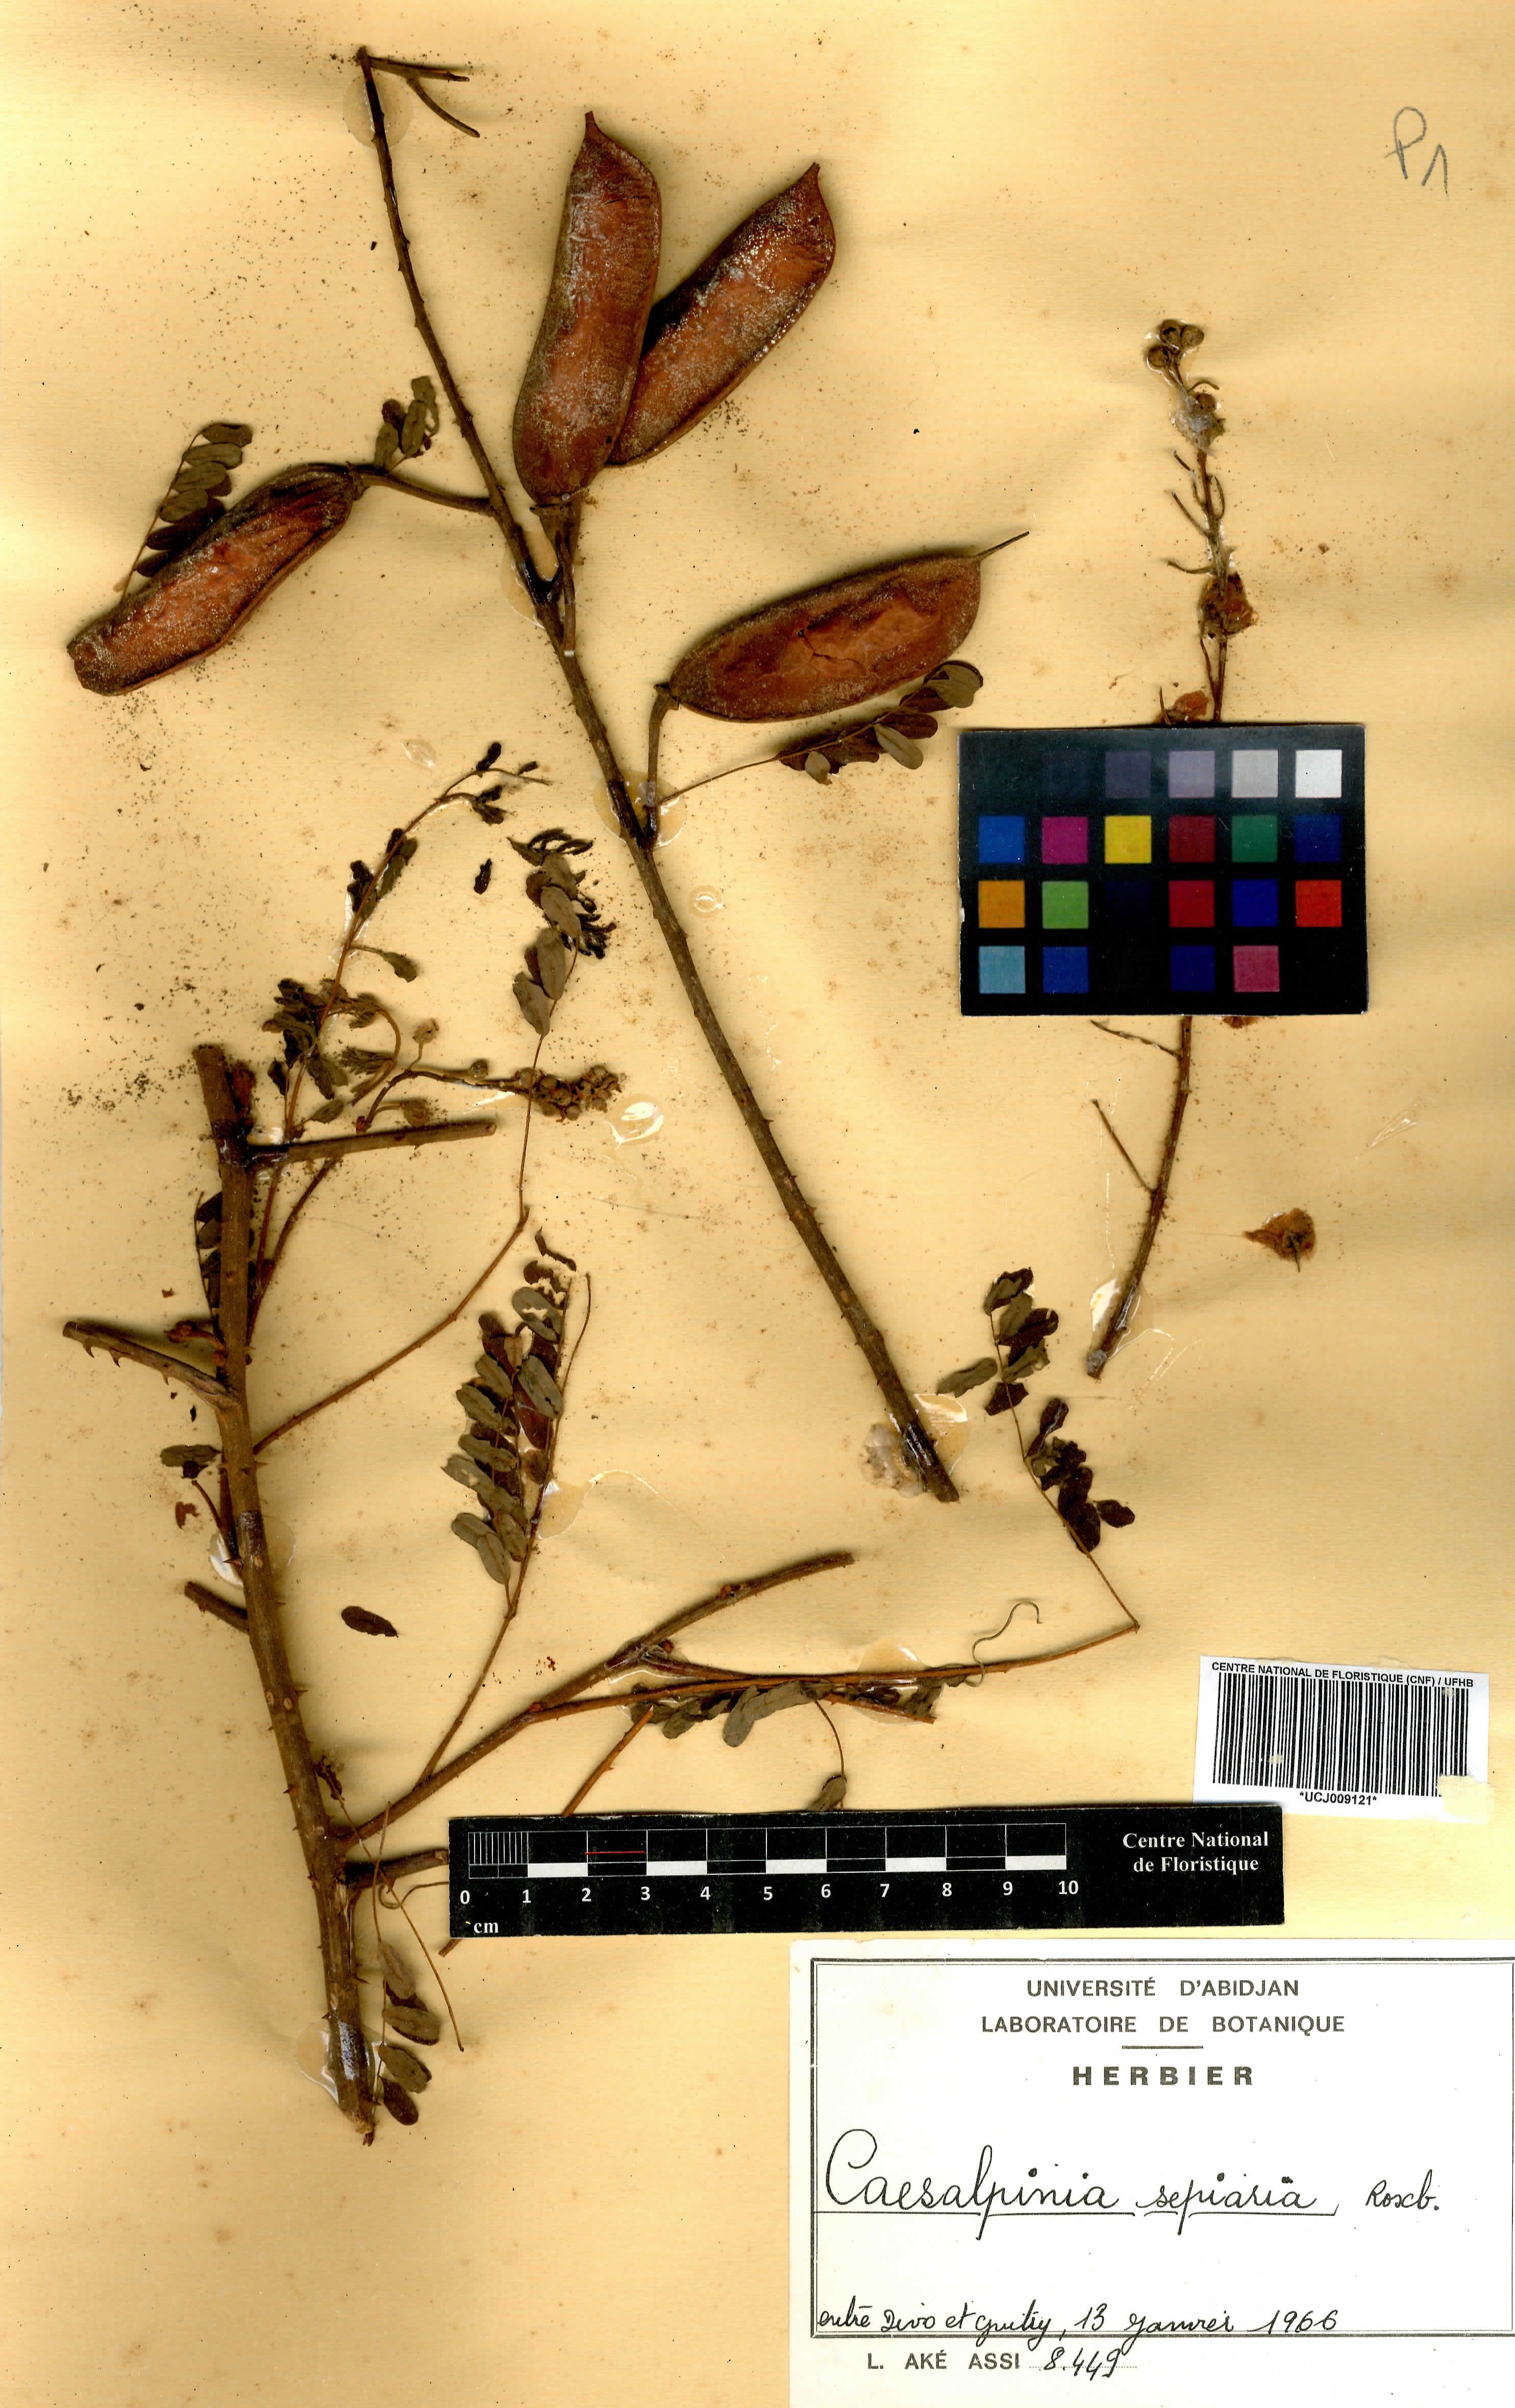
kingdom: Plantae
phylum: Tracheophyta
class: Magnoliopsida
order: Fabales
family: Fabaceae
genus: Biancaea
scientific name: Biancaea decapetala
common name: Cat's claw
